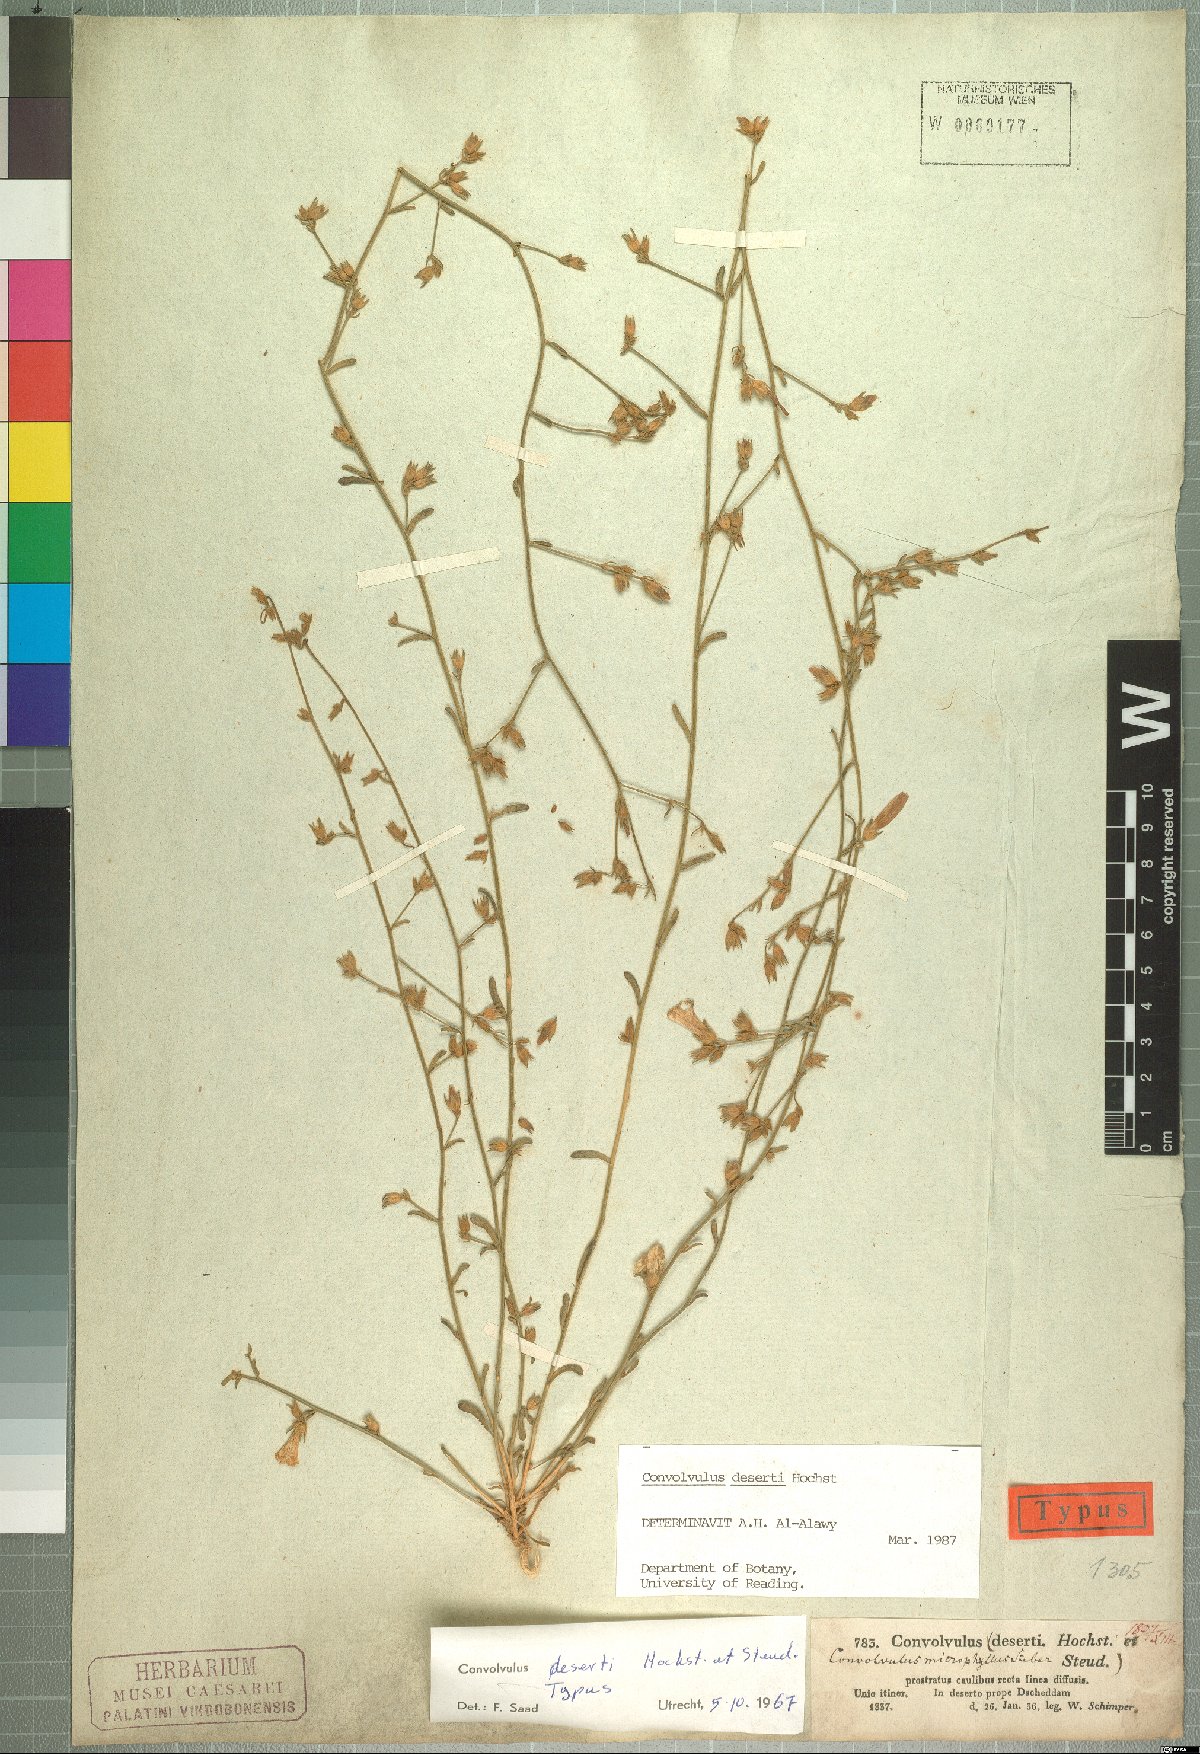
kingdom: Plantae
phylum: Tracheophyta
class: Magnoliopsida
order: Solanales
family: Convolvulaceae
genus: Convolvulus
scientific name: Convolvulus prostratus
